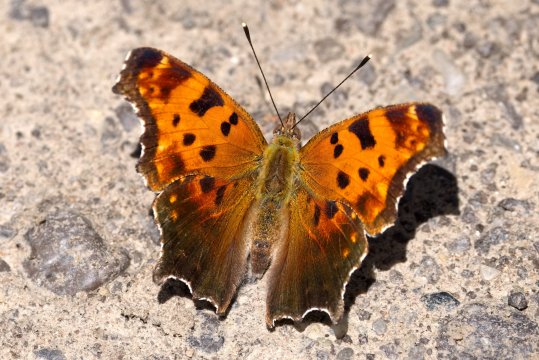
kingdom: Animalia
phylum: Arthropoda
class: Insecta
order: Lepidoptera
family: Nymphalidae
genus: Polygonia
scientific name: Polygonia comma
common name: Eastern Comma
